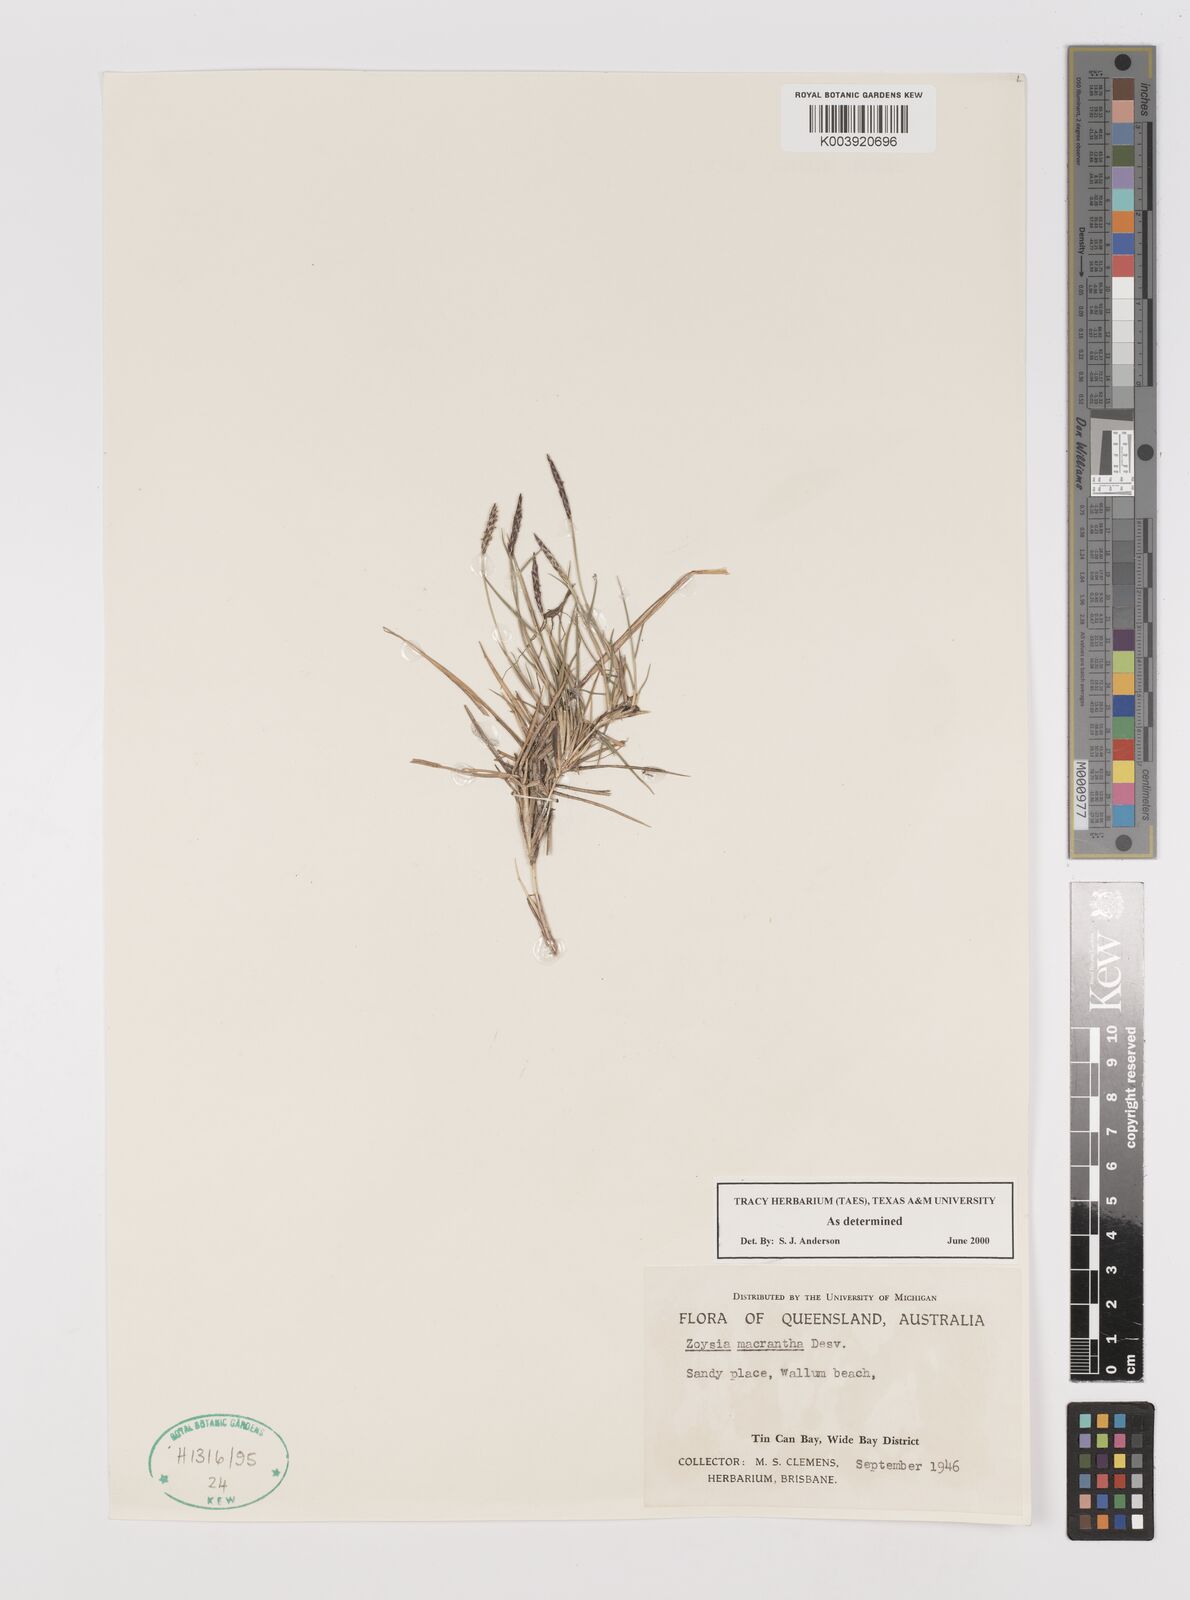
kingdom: Plantae
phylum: Tracheophyta
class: Liliopsida
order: Poales
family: Poaceae
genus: Zoysia
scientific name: Zoysia macrantha
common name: Korean lawn grass
